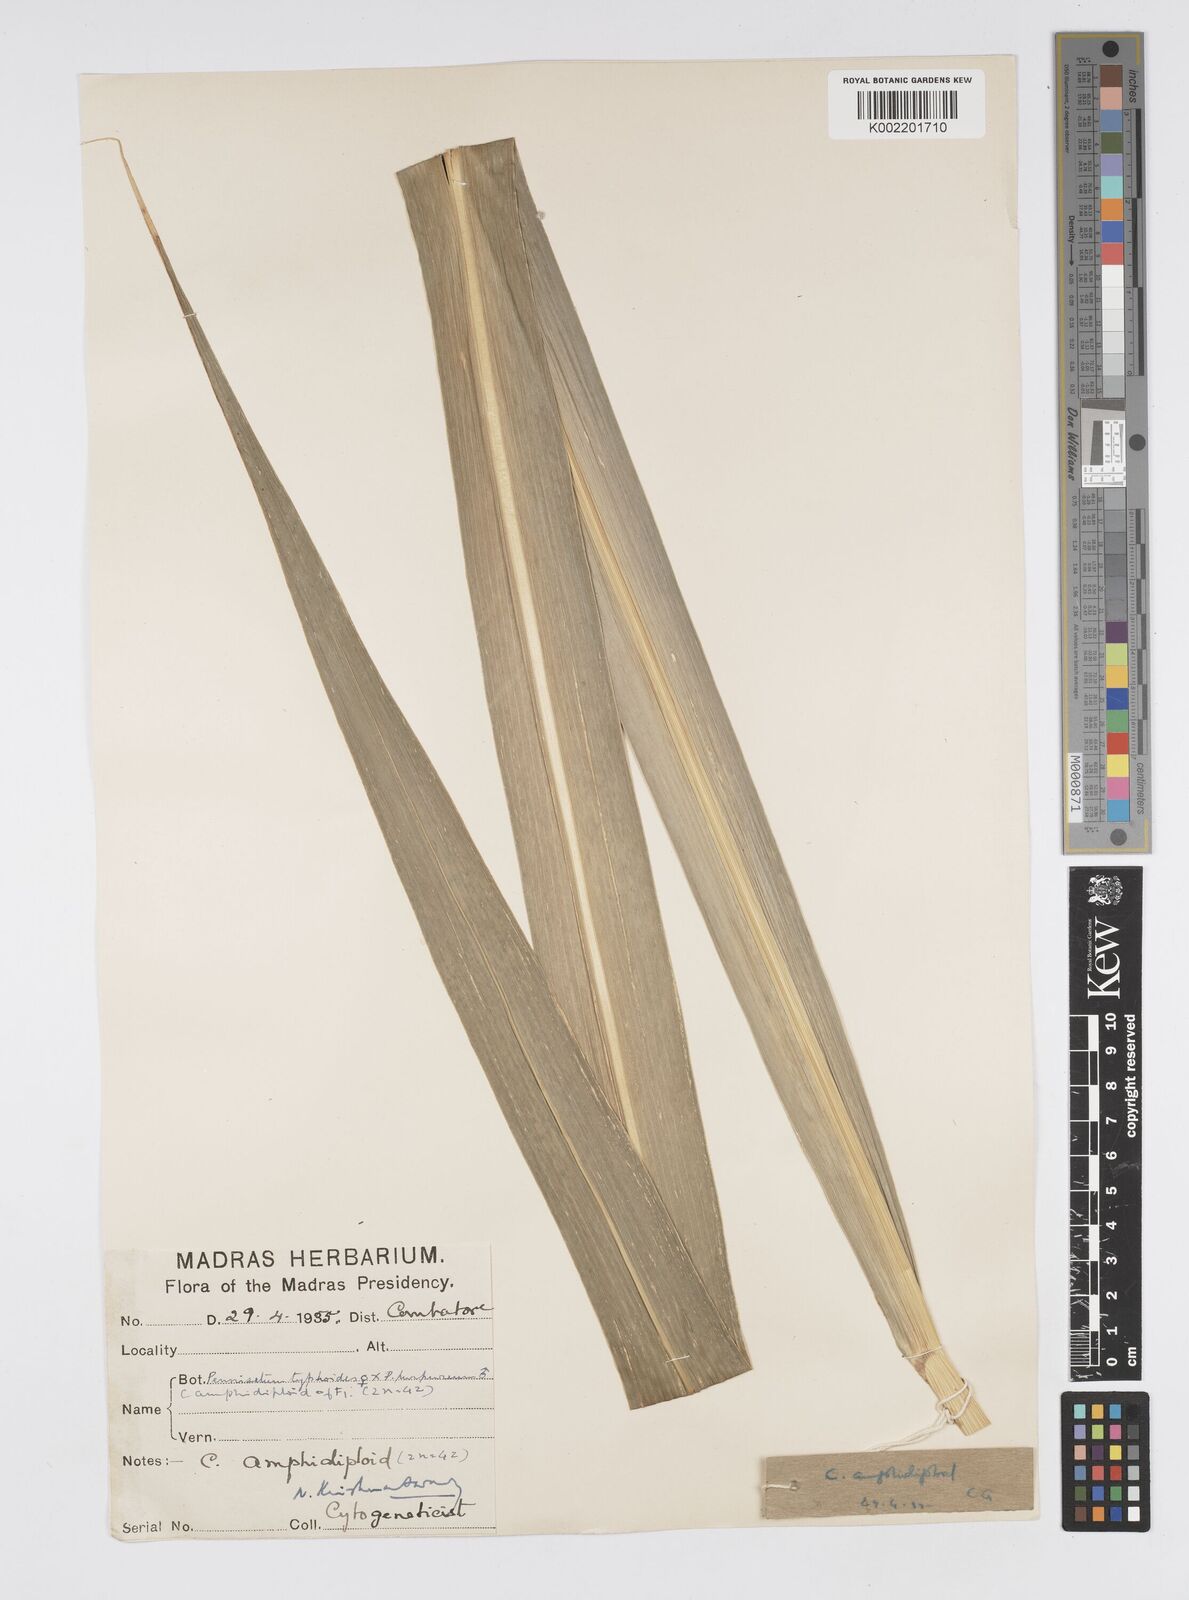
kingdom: Plantae
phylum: Tracheophyta
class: Liliopsida
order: Poales
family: Poaceae
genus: Cenchrus
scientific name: Cenchrus purpureus
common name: Elephant grass
